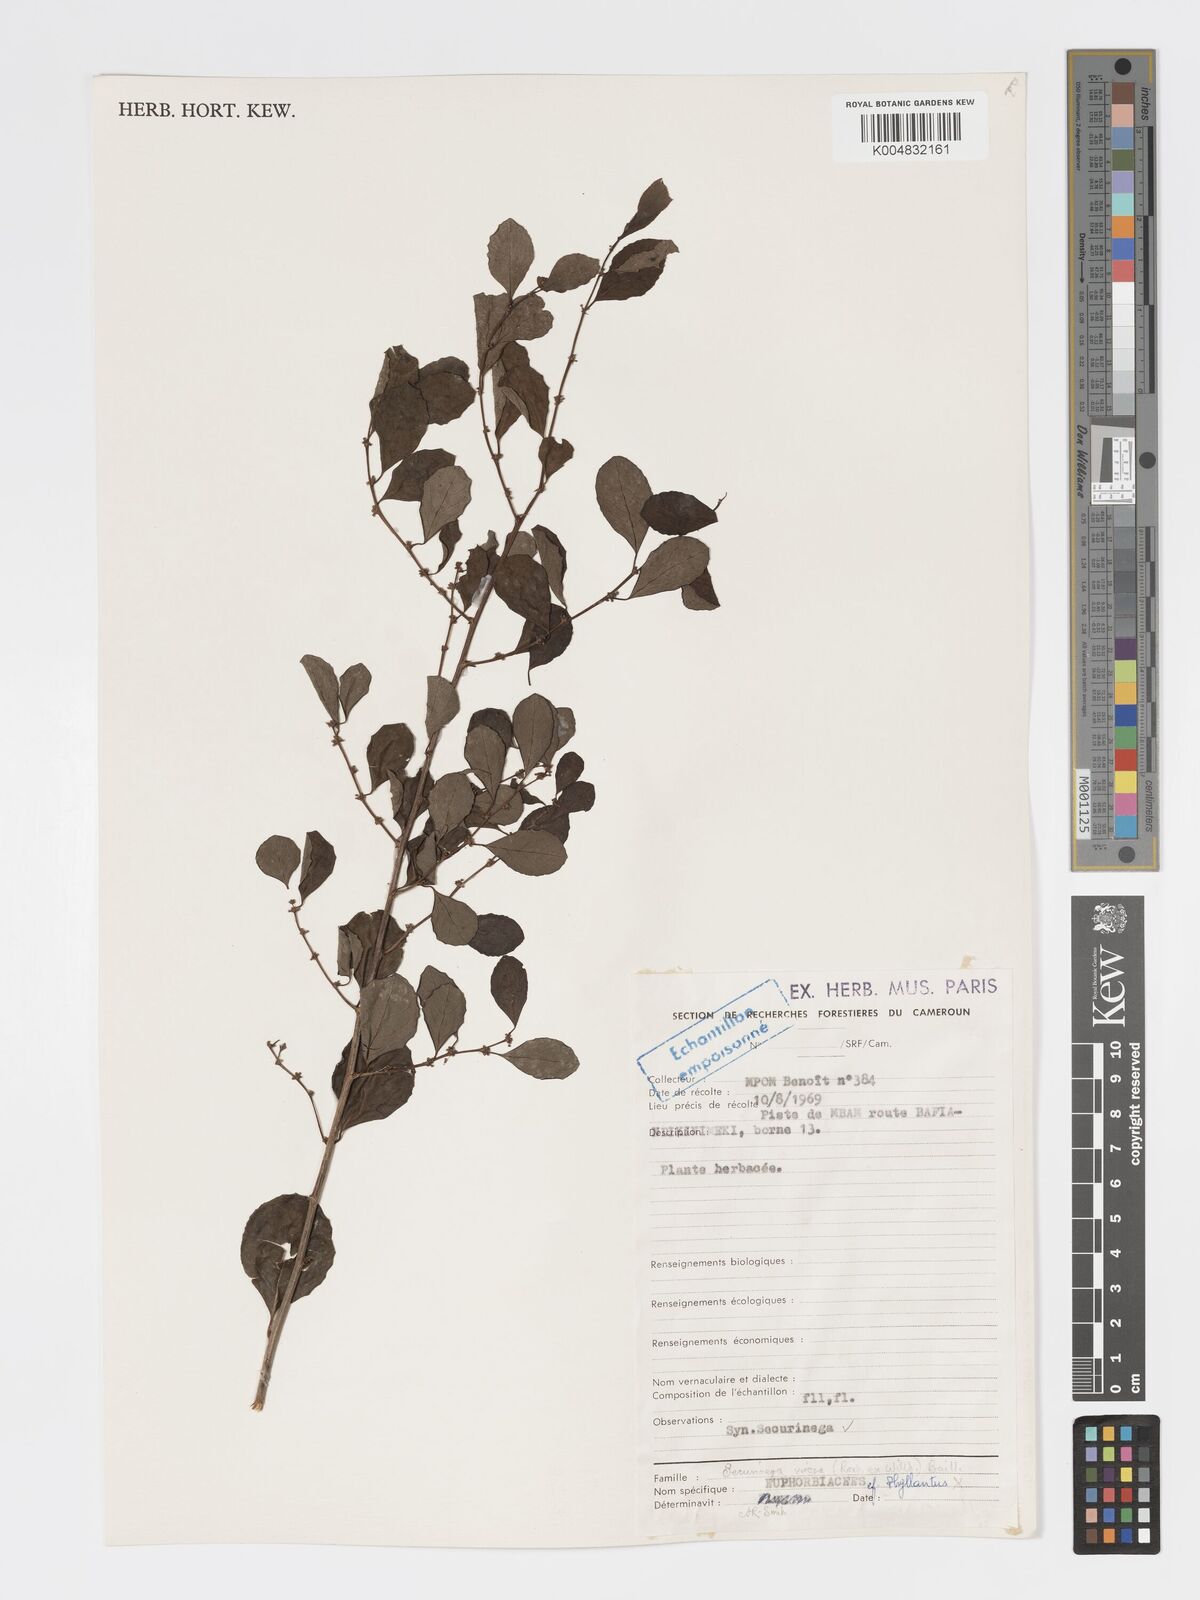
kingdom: Plantae
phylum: Tracheophyta
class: Magnoliopsida
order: Malpighiales
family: Phyllanthaceae
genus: Flueggea
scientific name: Flueggea virosa
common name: Common bushweed
